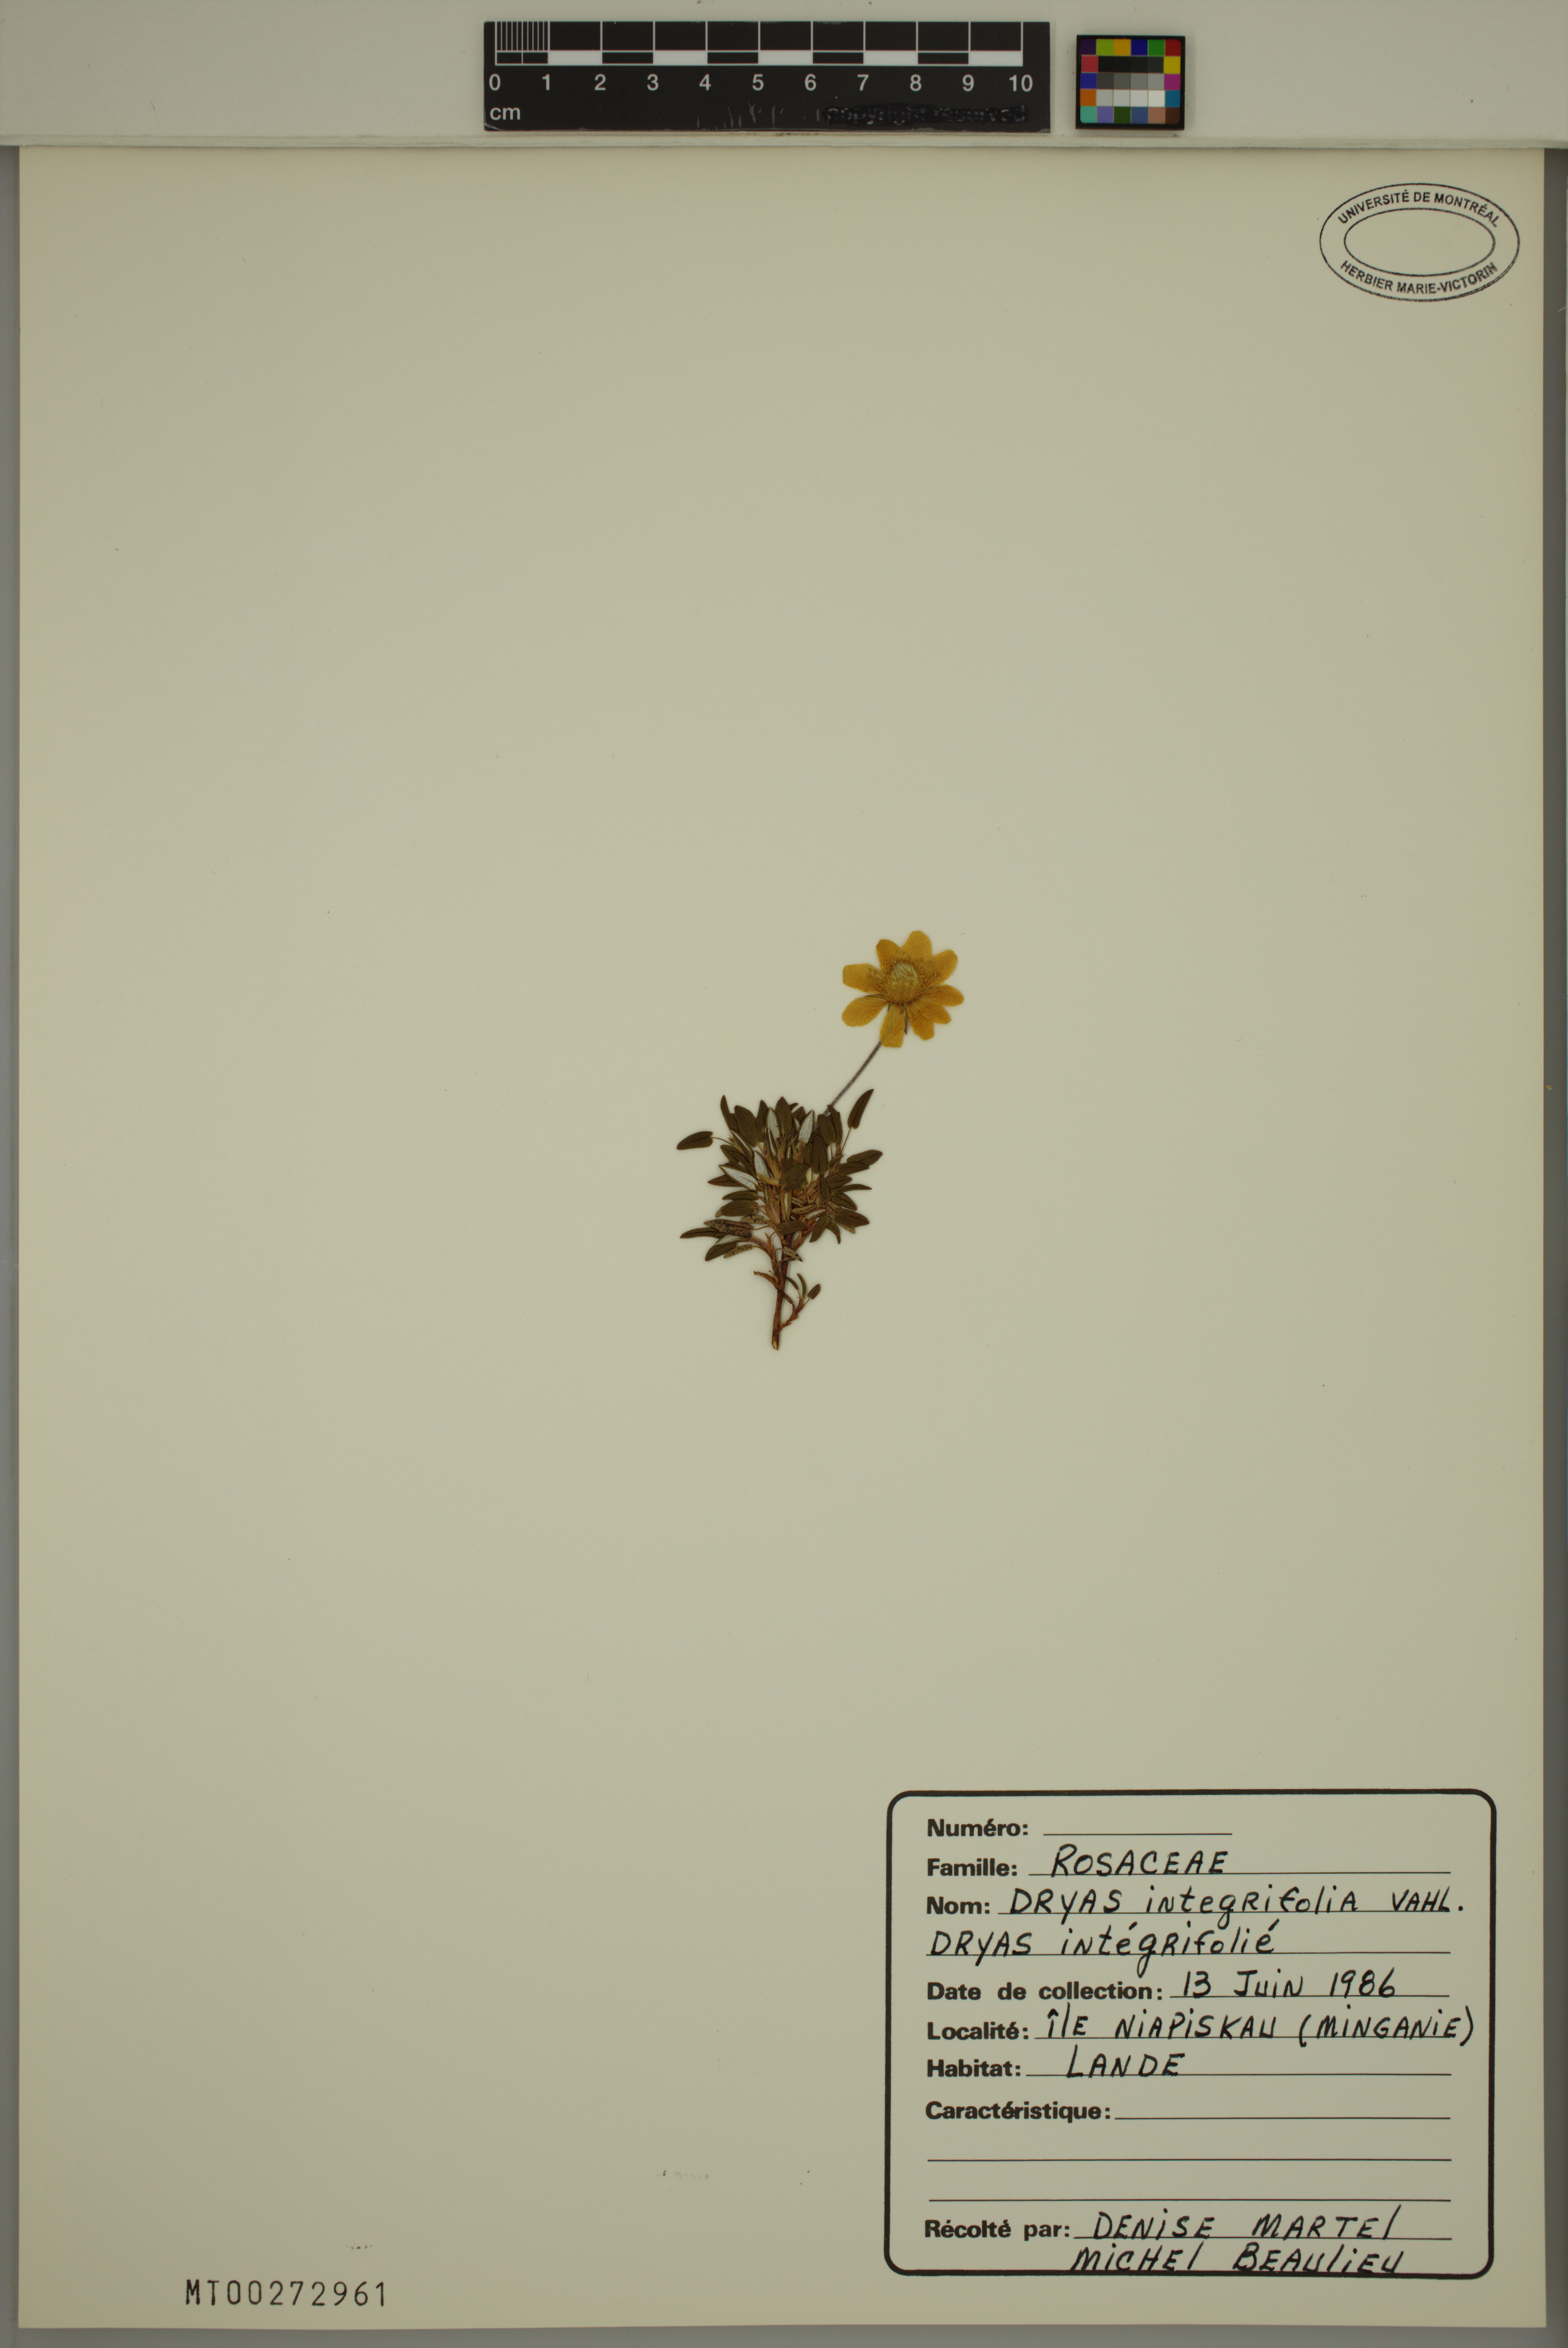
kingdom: Plantae
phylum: Tracheophyta
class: Magnoliopsida
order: Rosales
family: Rosaceae
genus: Dryas
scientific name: Dryas integrifolia
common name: Entire-leaved mountain avens
